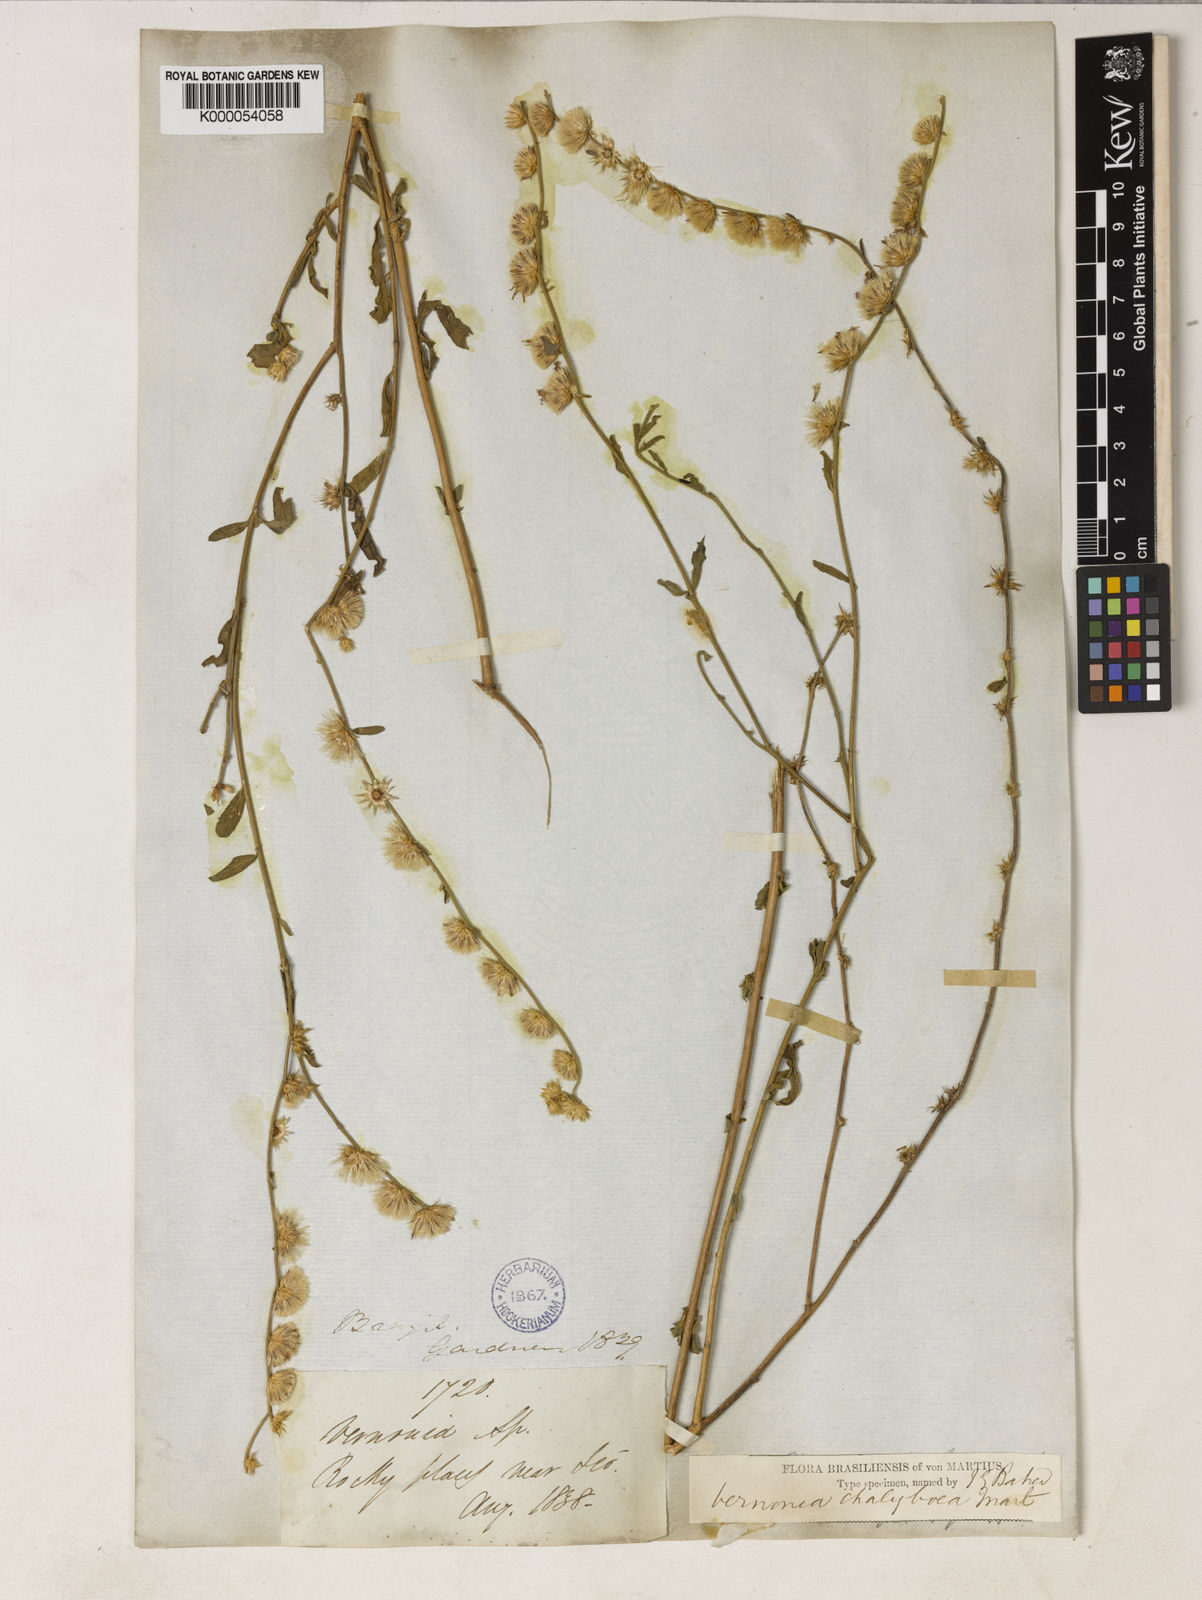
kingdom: Plantae
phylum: Tracheophyta
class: Magnoliopsida
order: Asterales
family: Asteraceae
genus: Lepidaploa
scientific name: Lepidaploa chalybaea
